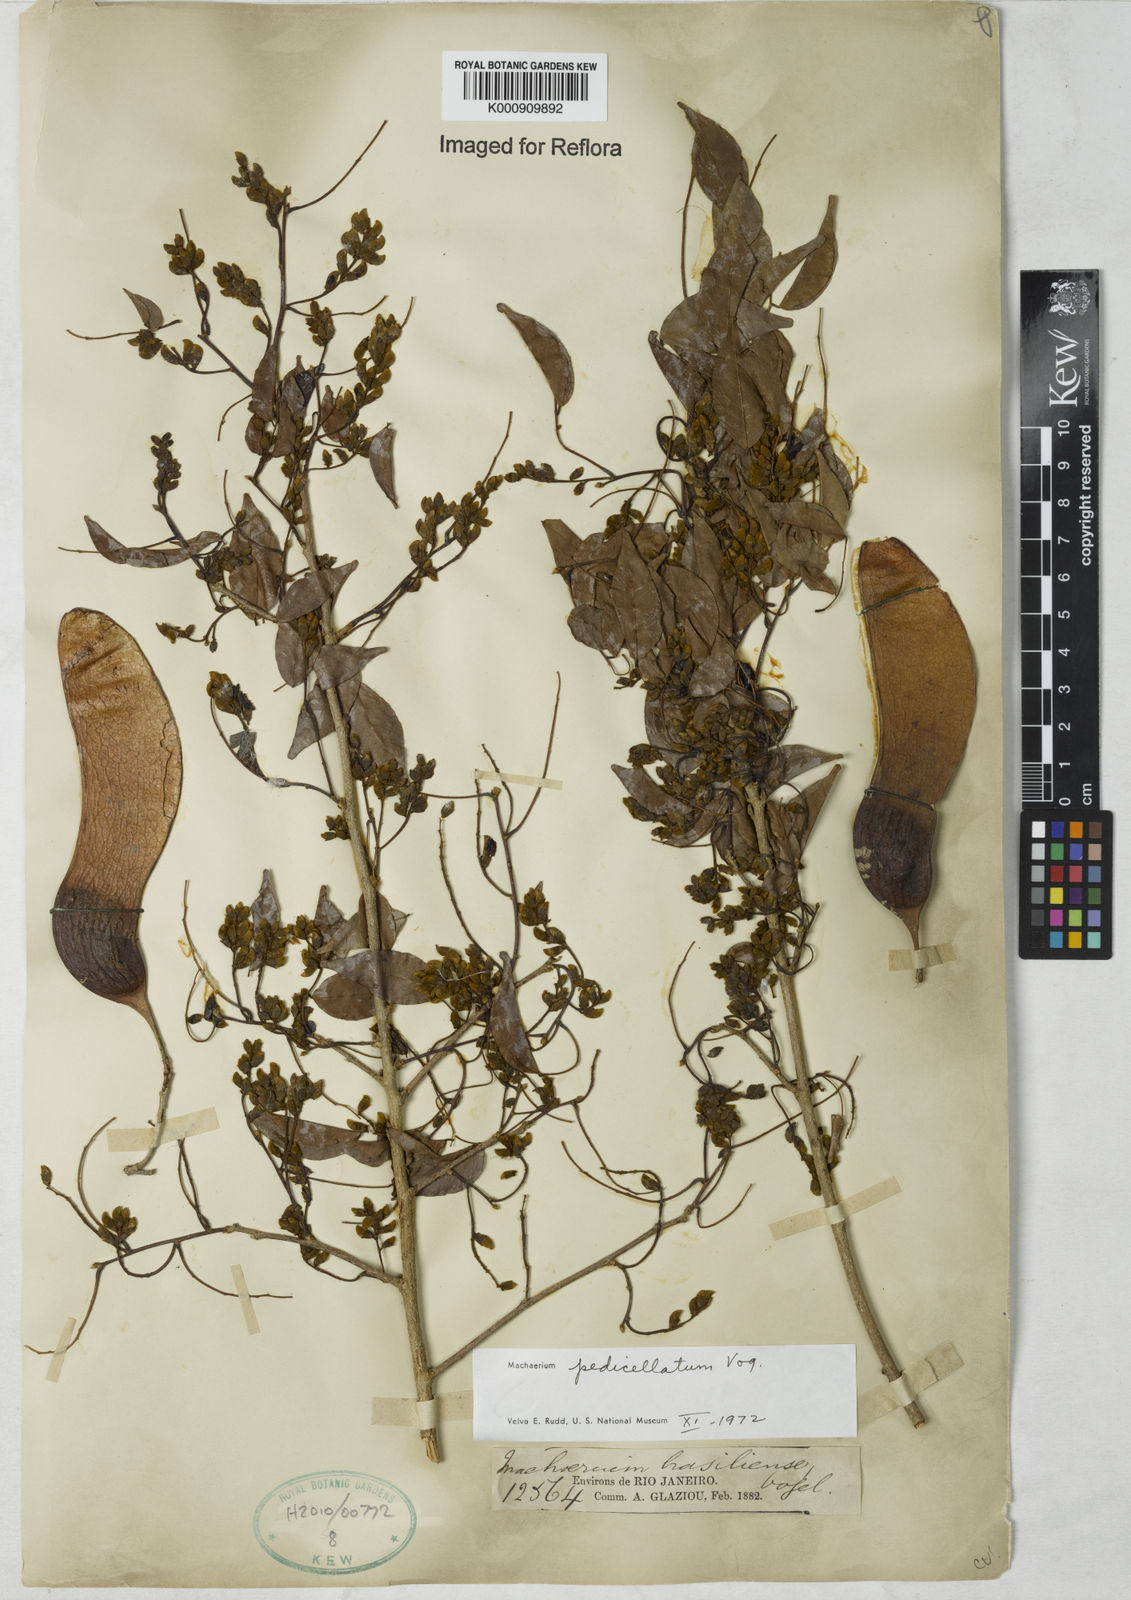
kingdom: Plantae
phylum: Tracheophyta
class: Magnoliopsida
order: Fabales
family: Fabaceae
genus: Machaerium
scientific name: Machaerium pedicellatum
